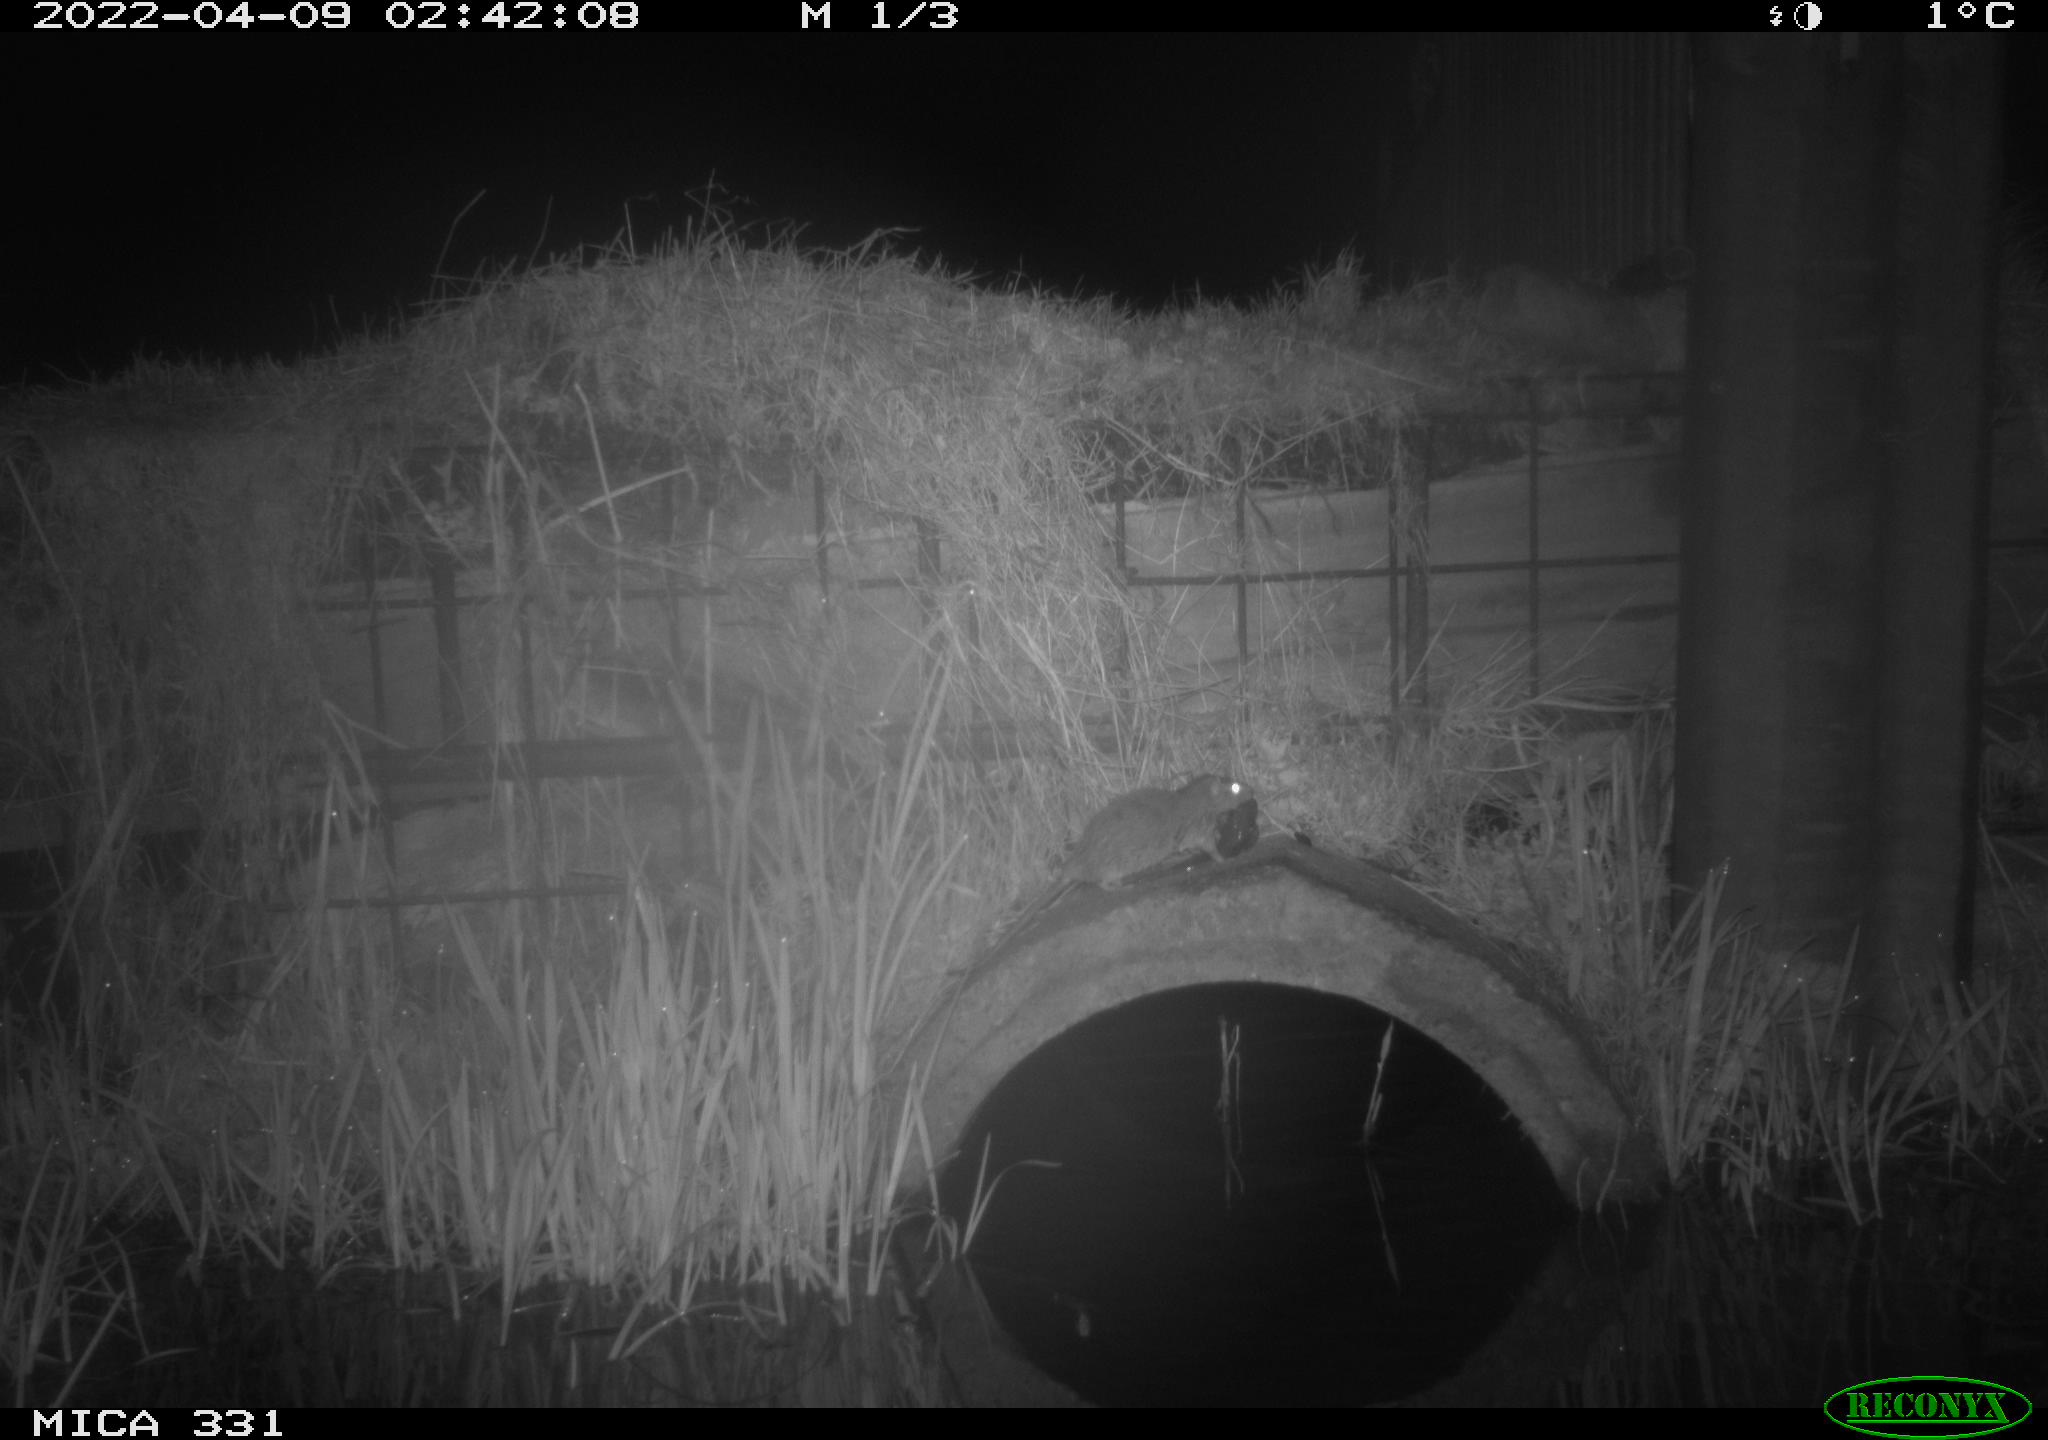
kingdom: Animalia
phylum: Chordata
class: Mammalia
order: Rodentia
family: Muridae
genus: Rattus
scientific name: Rattus norvegicus
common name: Brown rat
